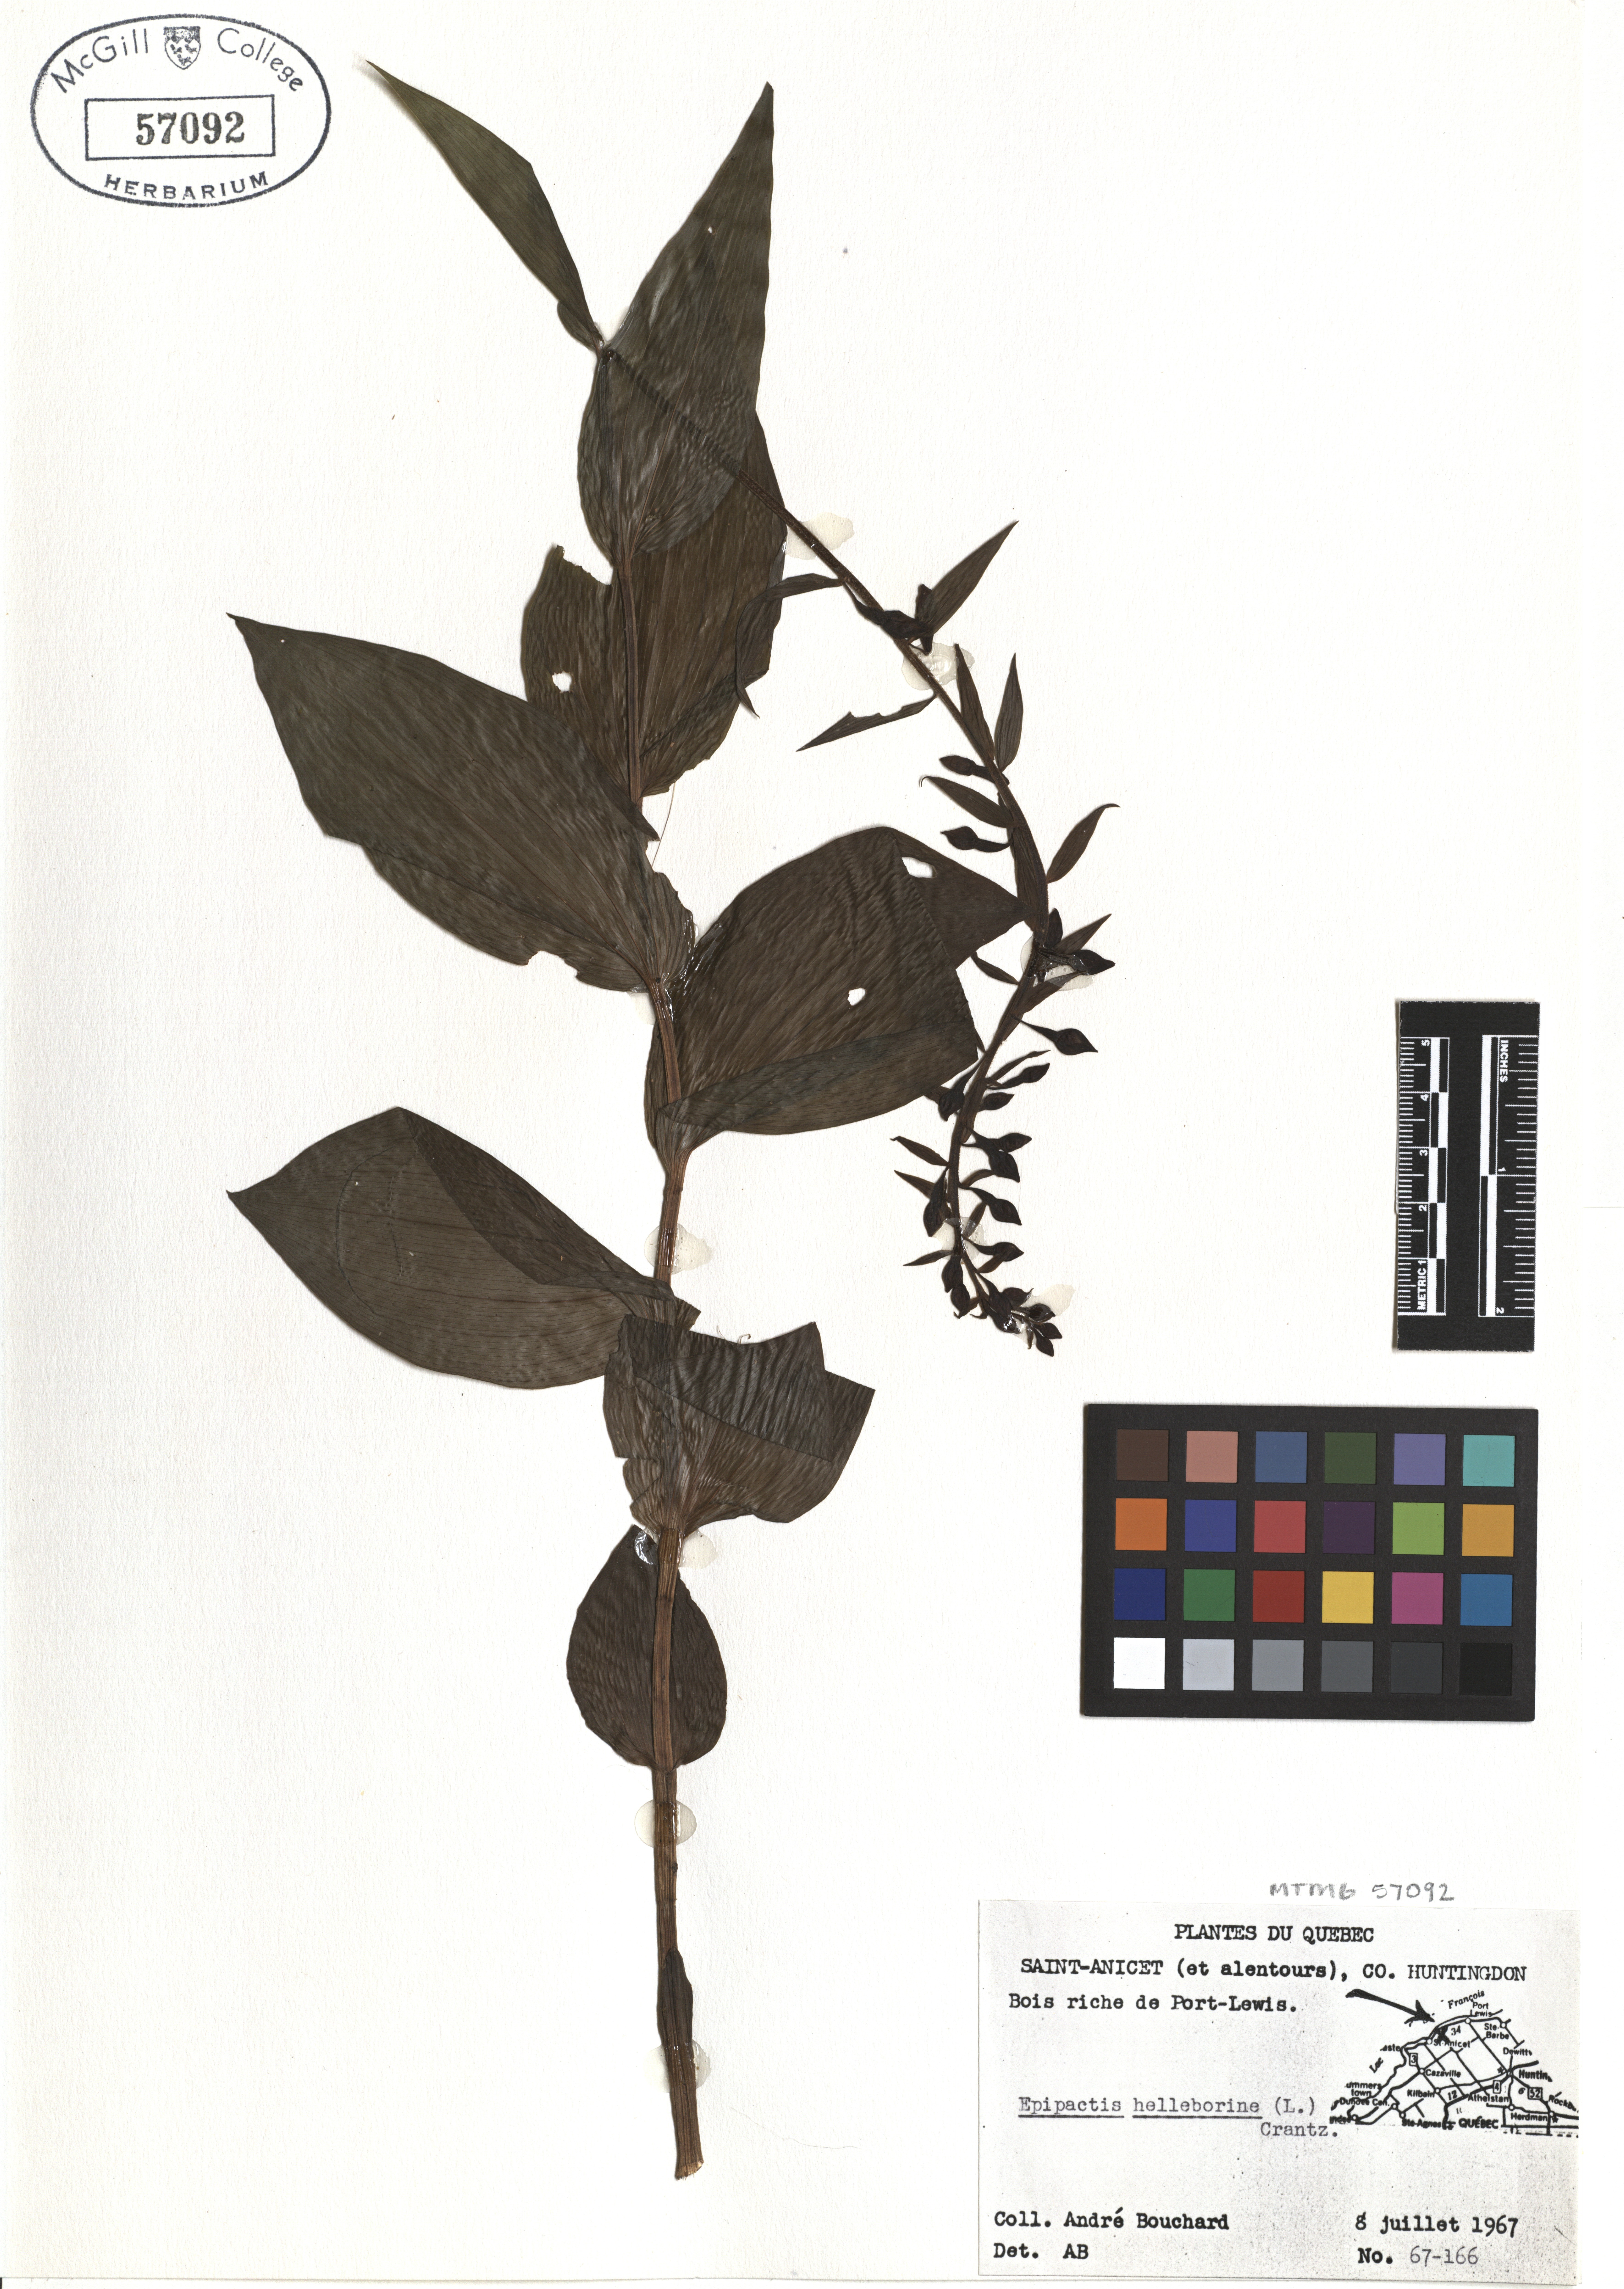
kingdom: Plantae
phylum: Tracheophyta
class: Liliopsida
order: Asparagales
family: Orchidaceae
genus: Epipactis
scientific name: Epipactis helleborine
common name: Broad-leaved helleborine
